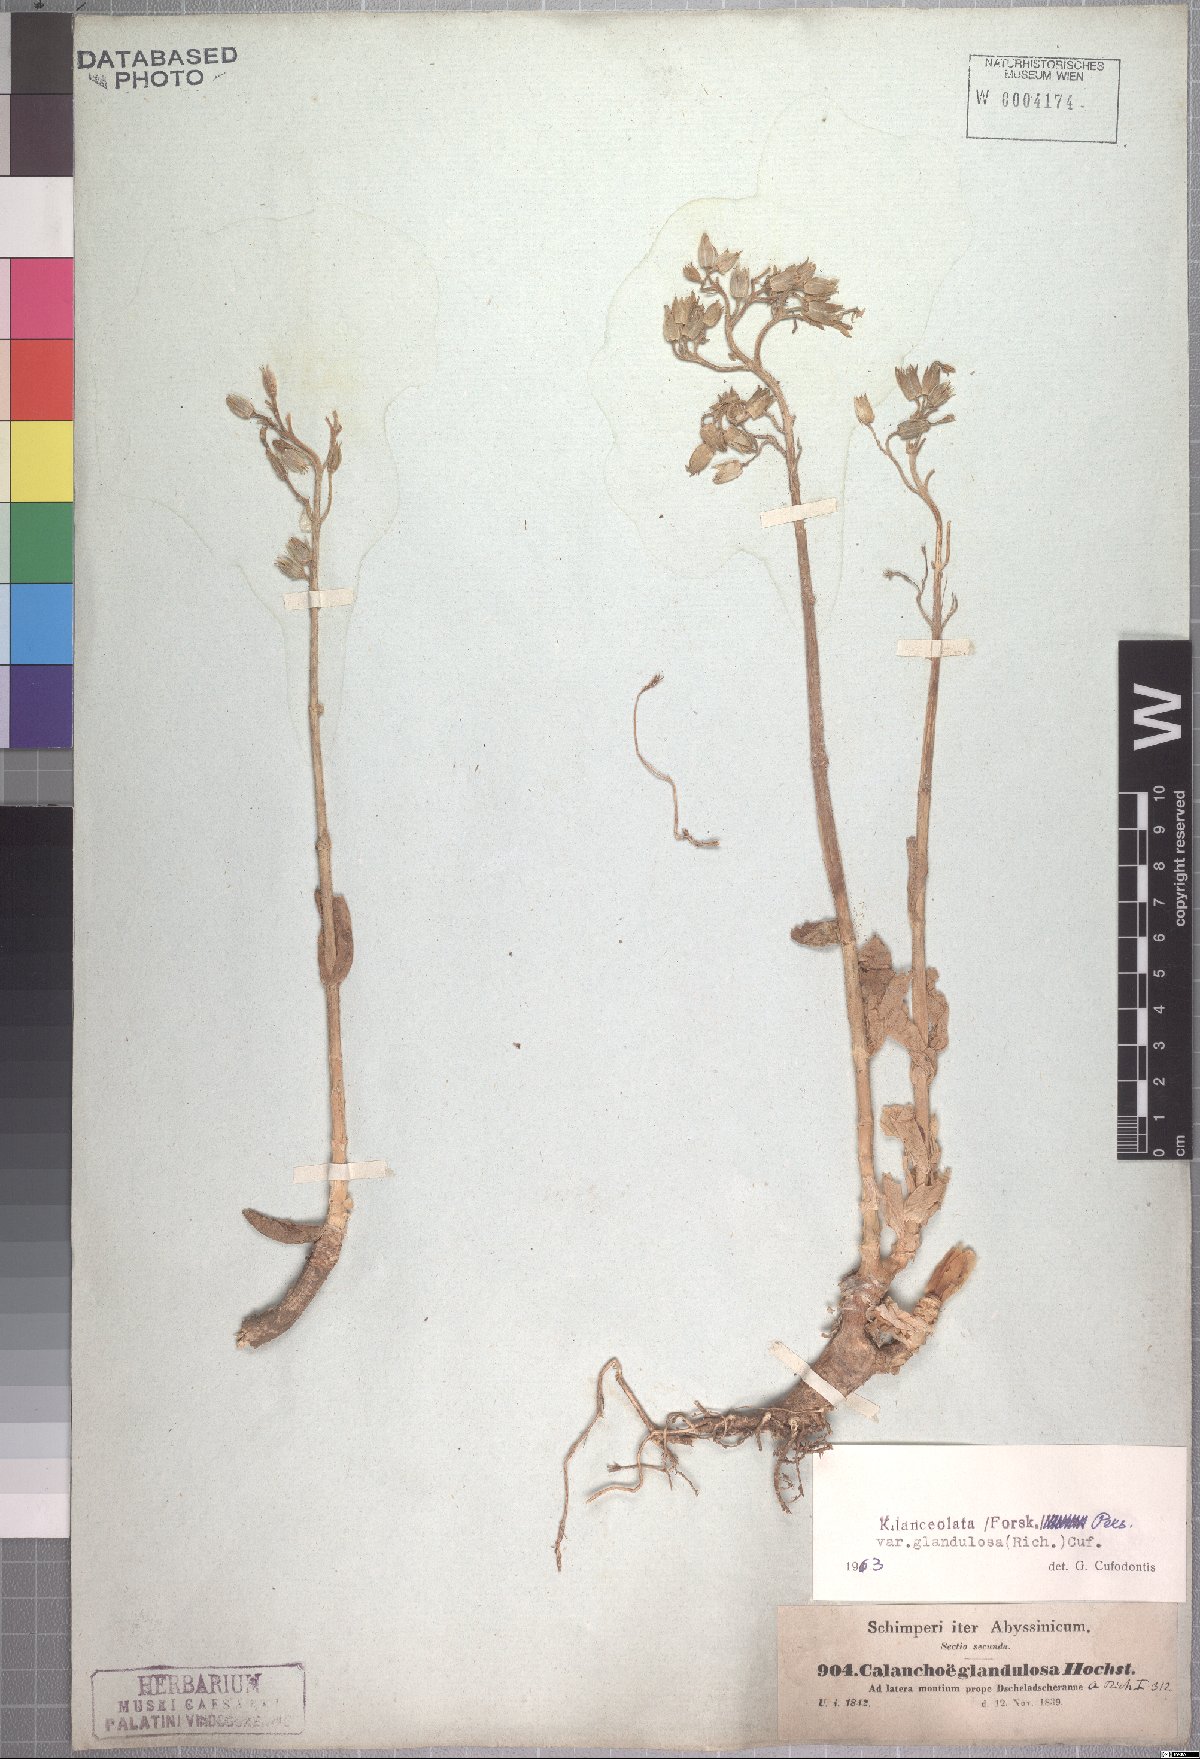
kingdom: Plantae
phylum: Tracheophyta
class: Magnoliopsida
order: Saxifragales
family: Crassulaceae
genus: Kalanchoe
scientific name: Kalanchoe lanceolata
